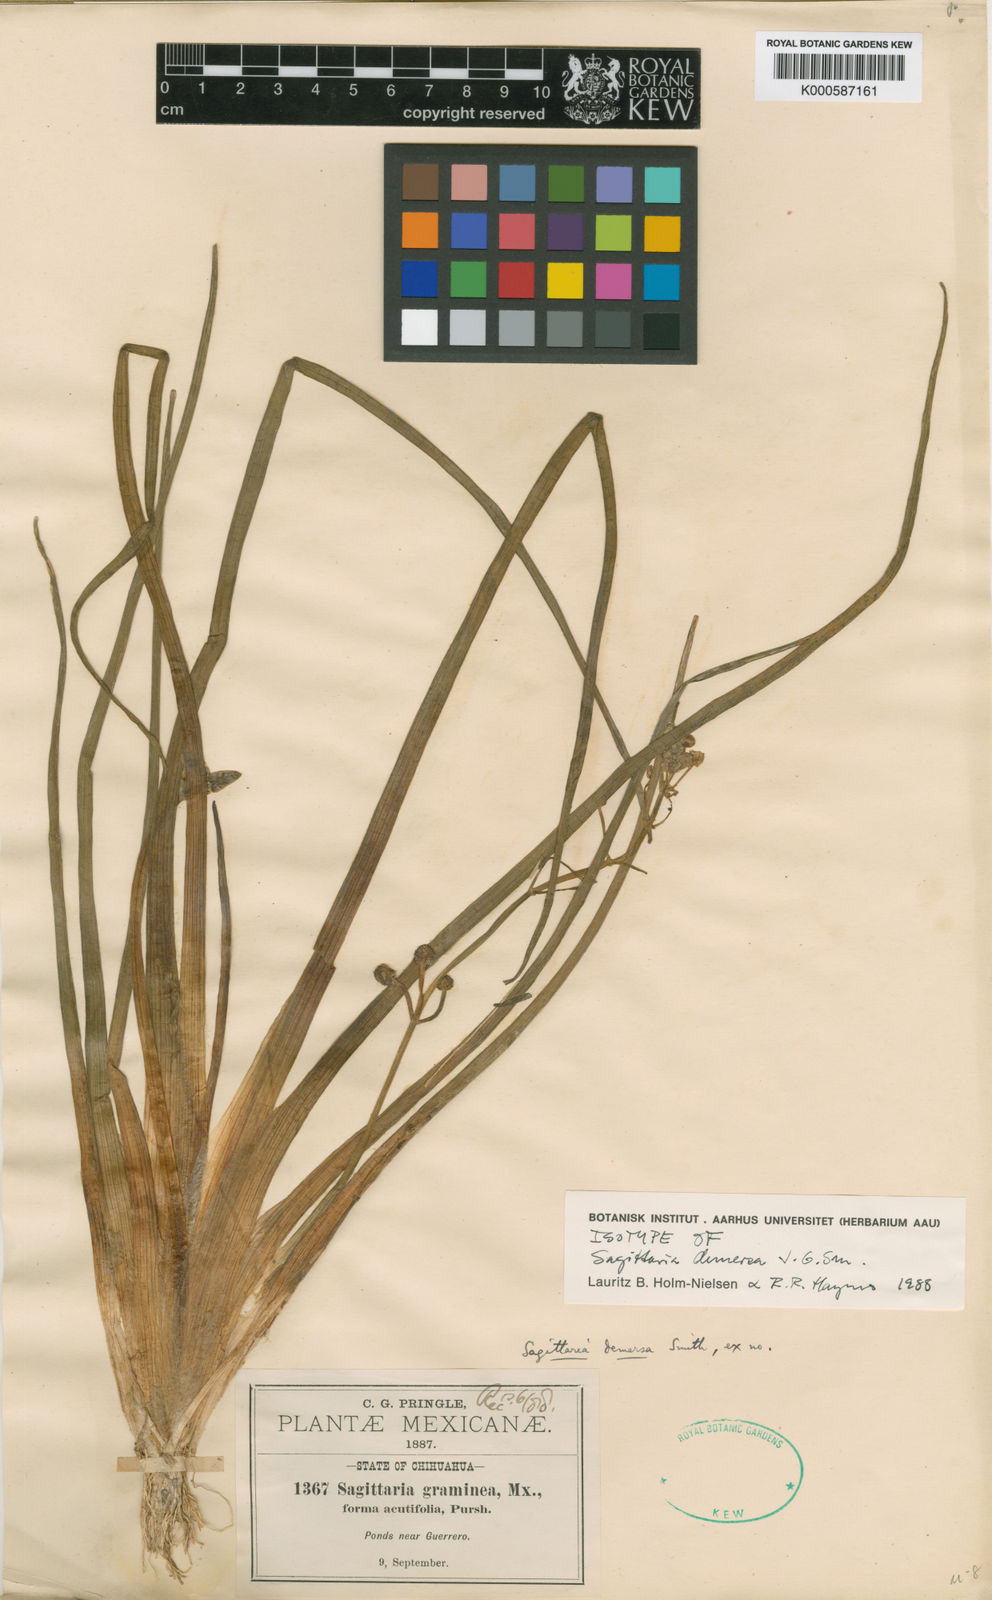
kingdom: Plantae
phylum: Tracheophyta
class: Liliopsida
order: Alismatales
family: Alismataceae
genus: Sagittaria
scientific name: Sagittaria demersa
